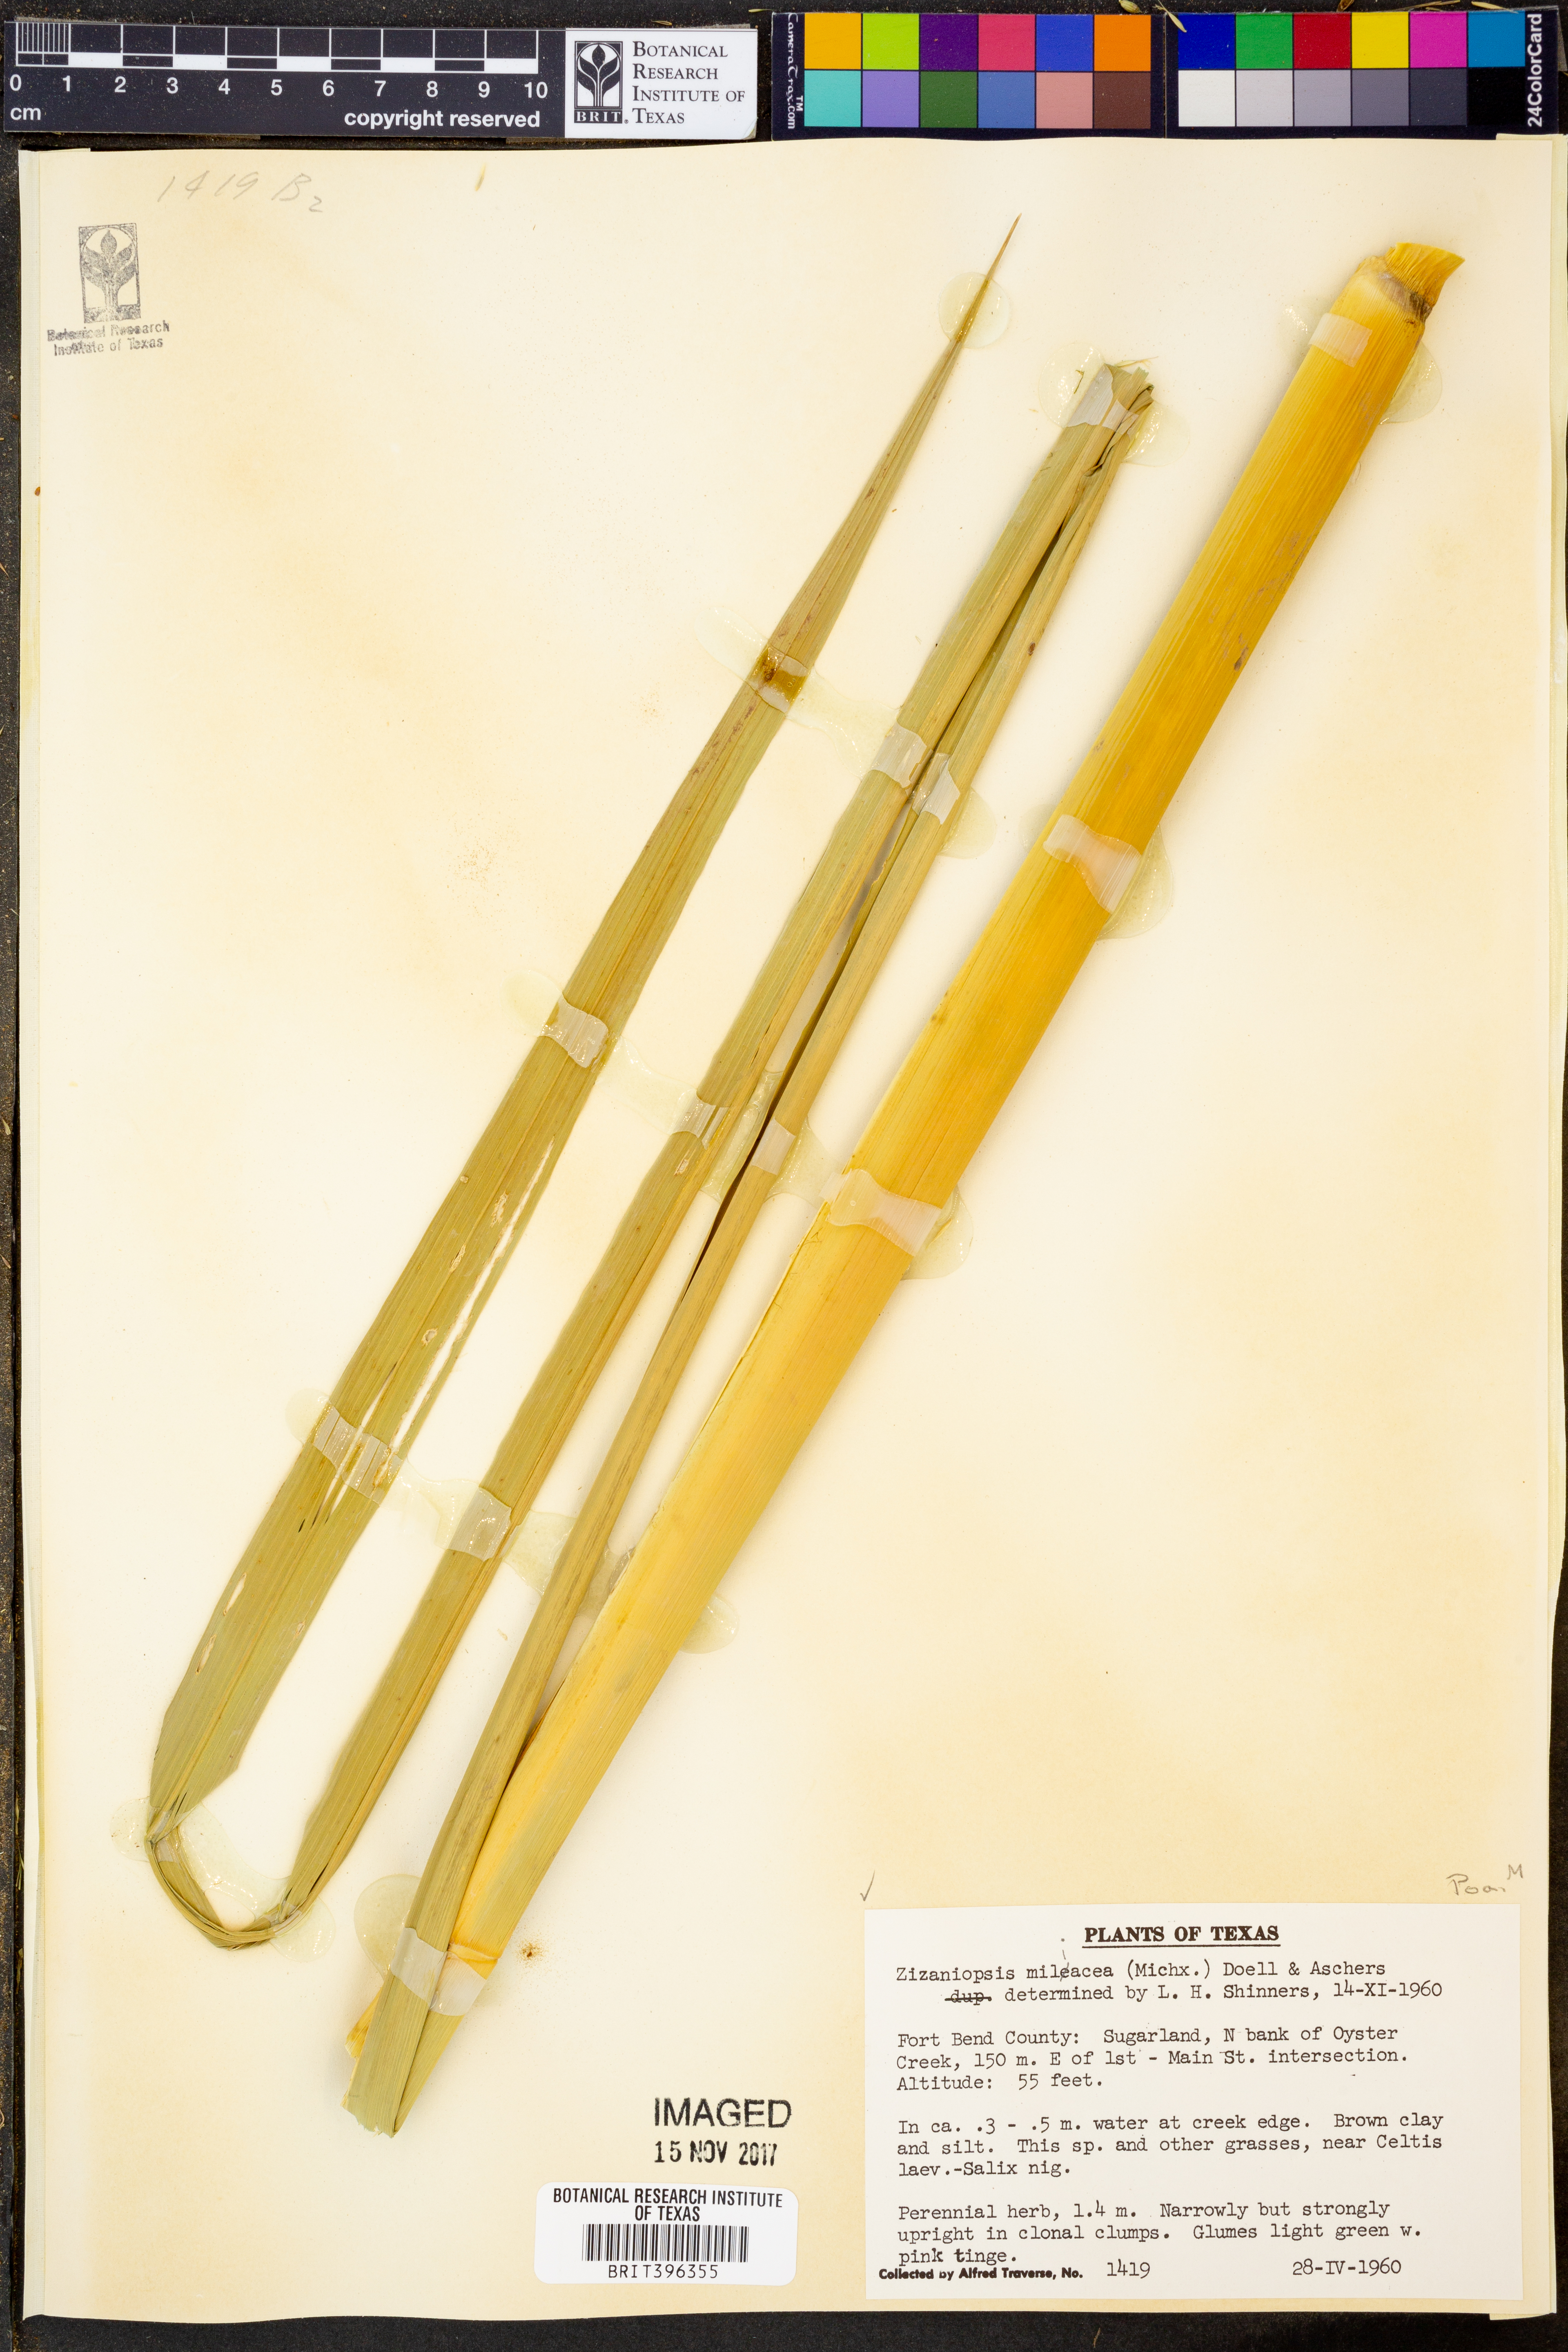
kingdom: Plantae
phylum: Tracheophyta
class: Liliopsida
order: Poales
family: Poaceae
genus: Zizaniopsis
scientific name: Zizaniopsis miliacea
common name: Giant-cutgrass
